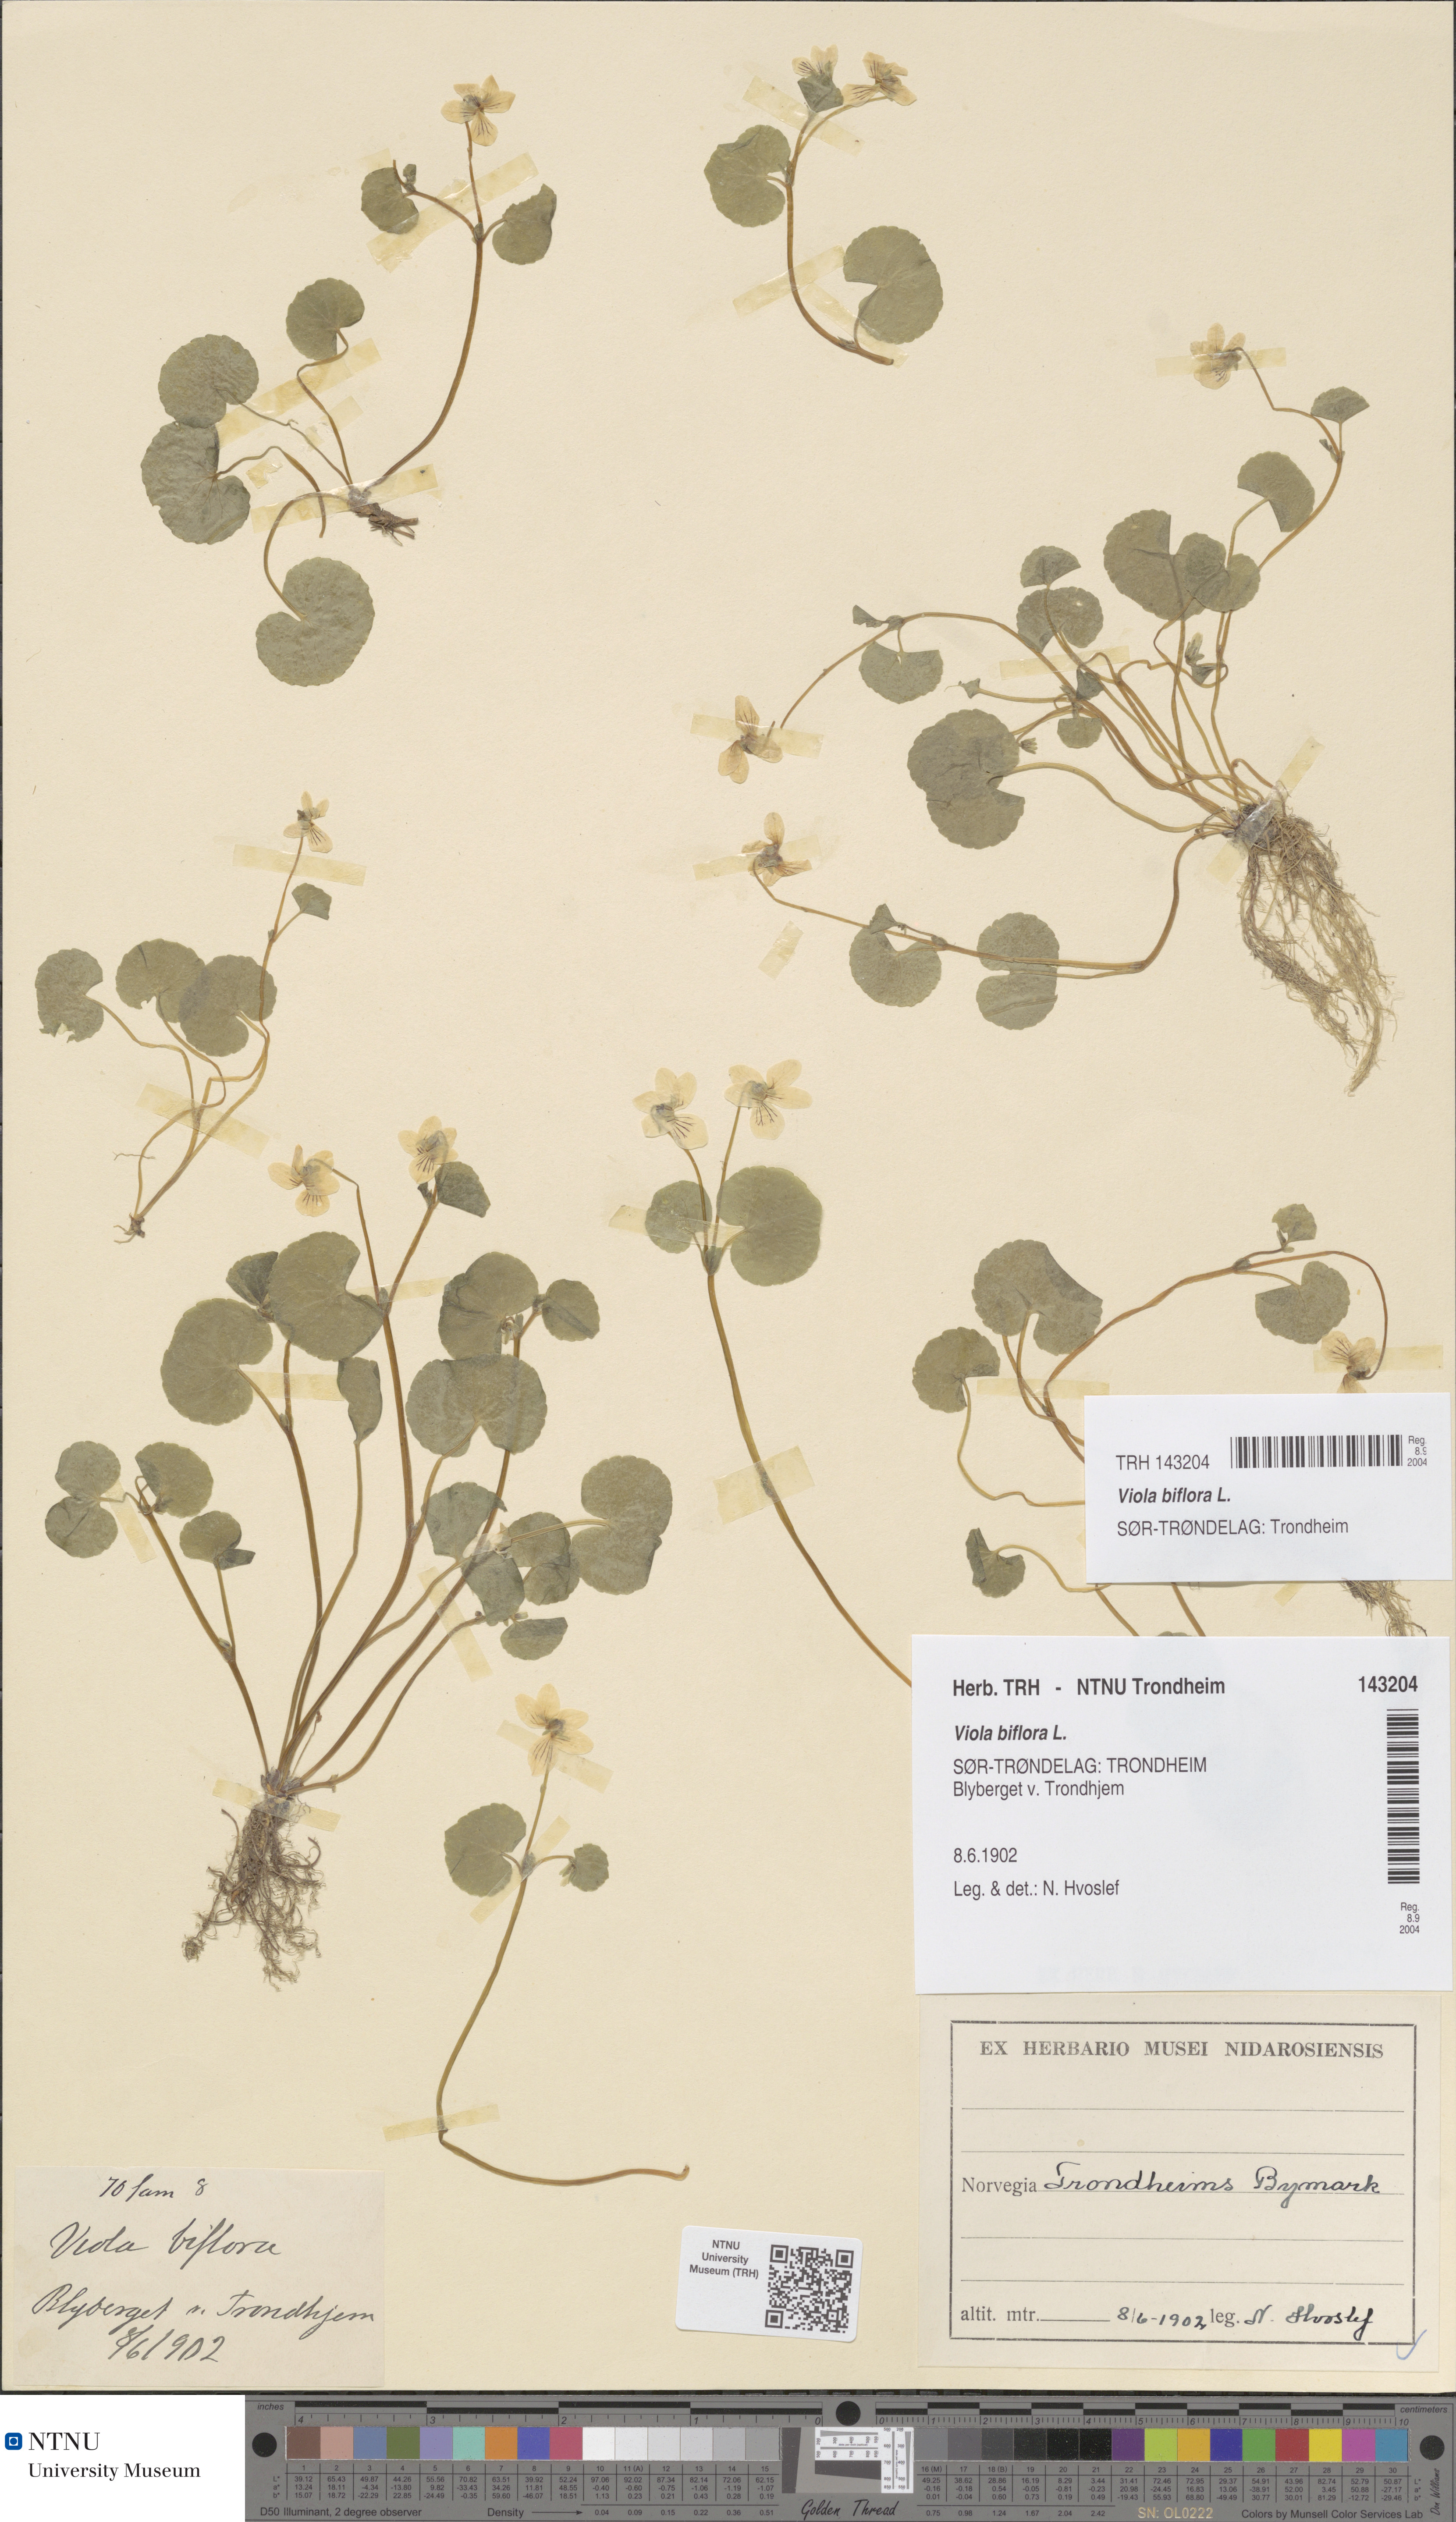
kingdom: Plantae
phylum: Tracheophyta
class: Magnoliopsida
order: Malpighiales
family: Violaceae
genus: Viola
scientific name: Viola biflora
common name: Alpine yellow violet
